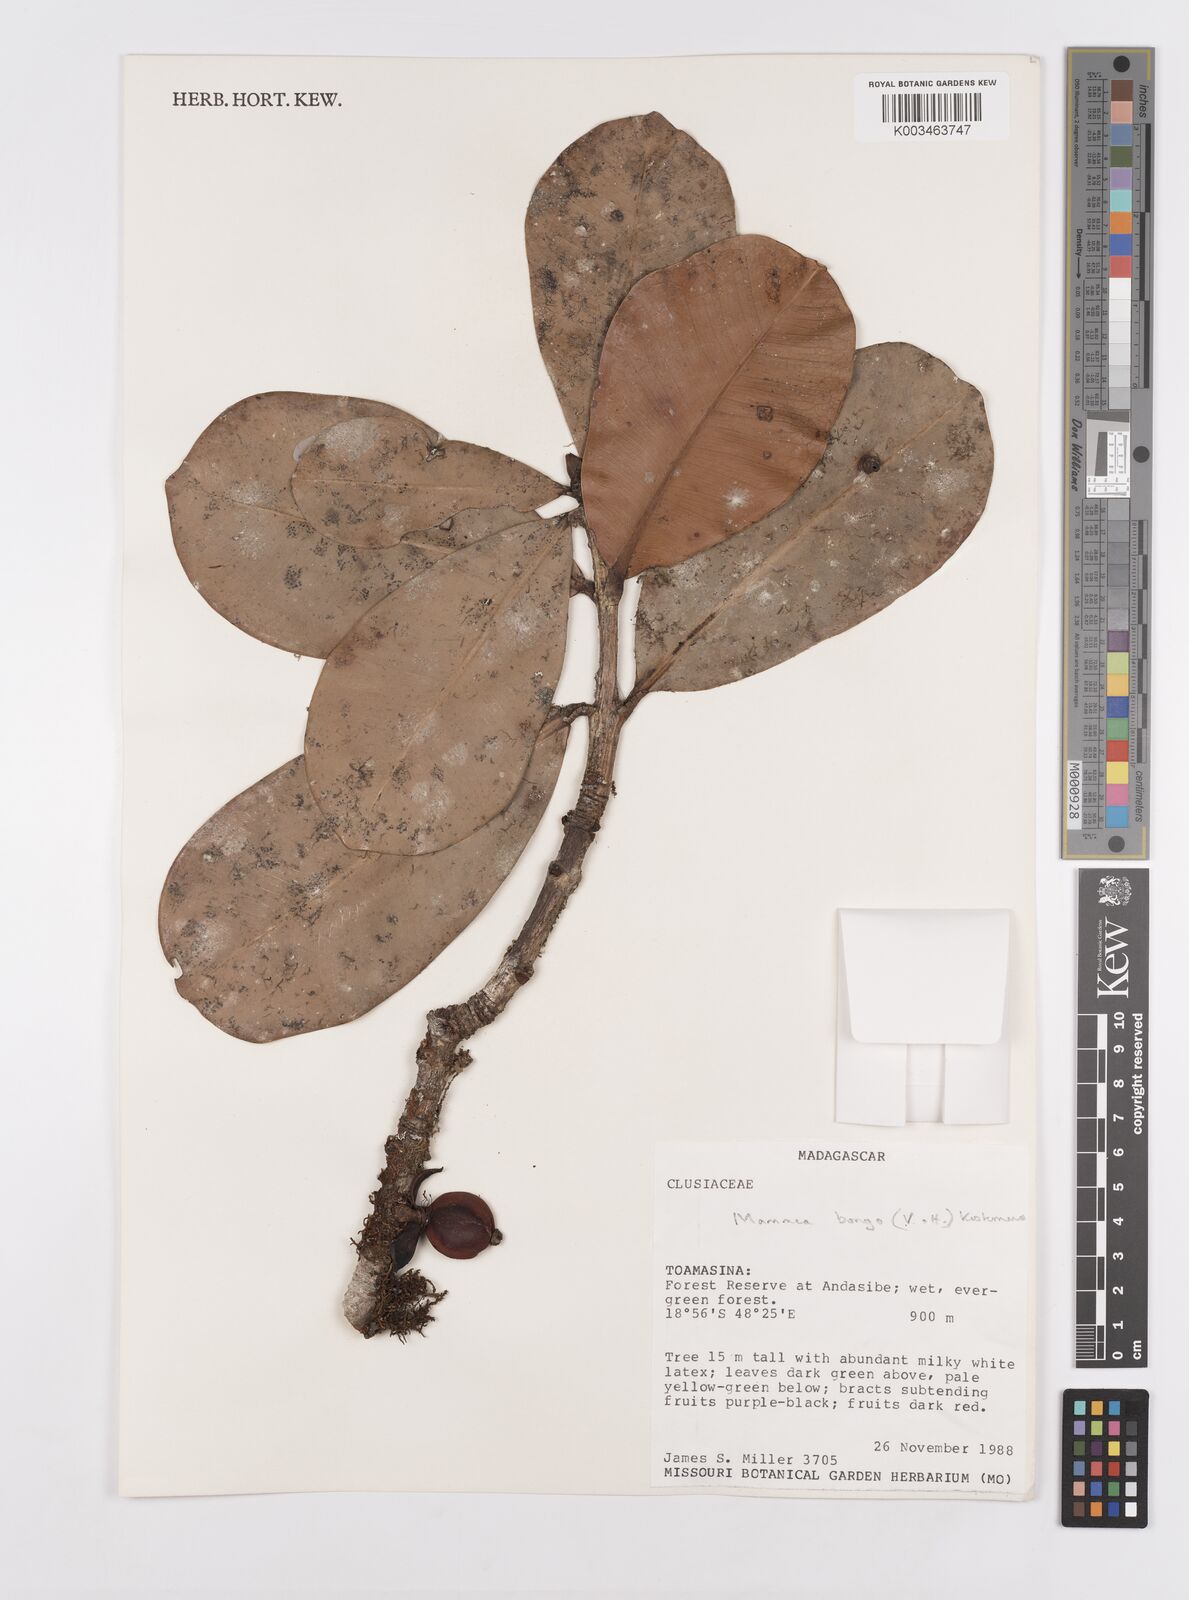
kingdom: Plantae
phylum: Tracheophyta
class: Magnoliopsida
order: Malpighiales
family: Calophyllaceae
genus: Mammea
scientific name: Mammea bongo
